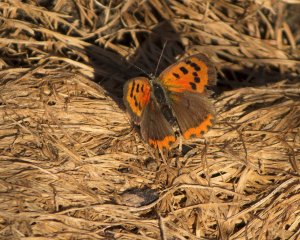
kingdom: Animalia
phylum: Arthropoda
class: Insecta
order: Lepidoptera
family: Lycaenidae
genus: Lycaena
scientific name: Lycaena phlaeas
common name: American Copper
